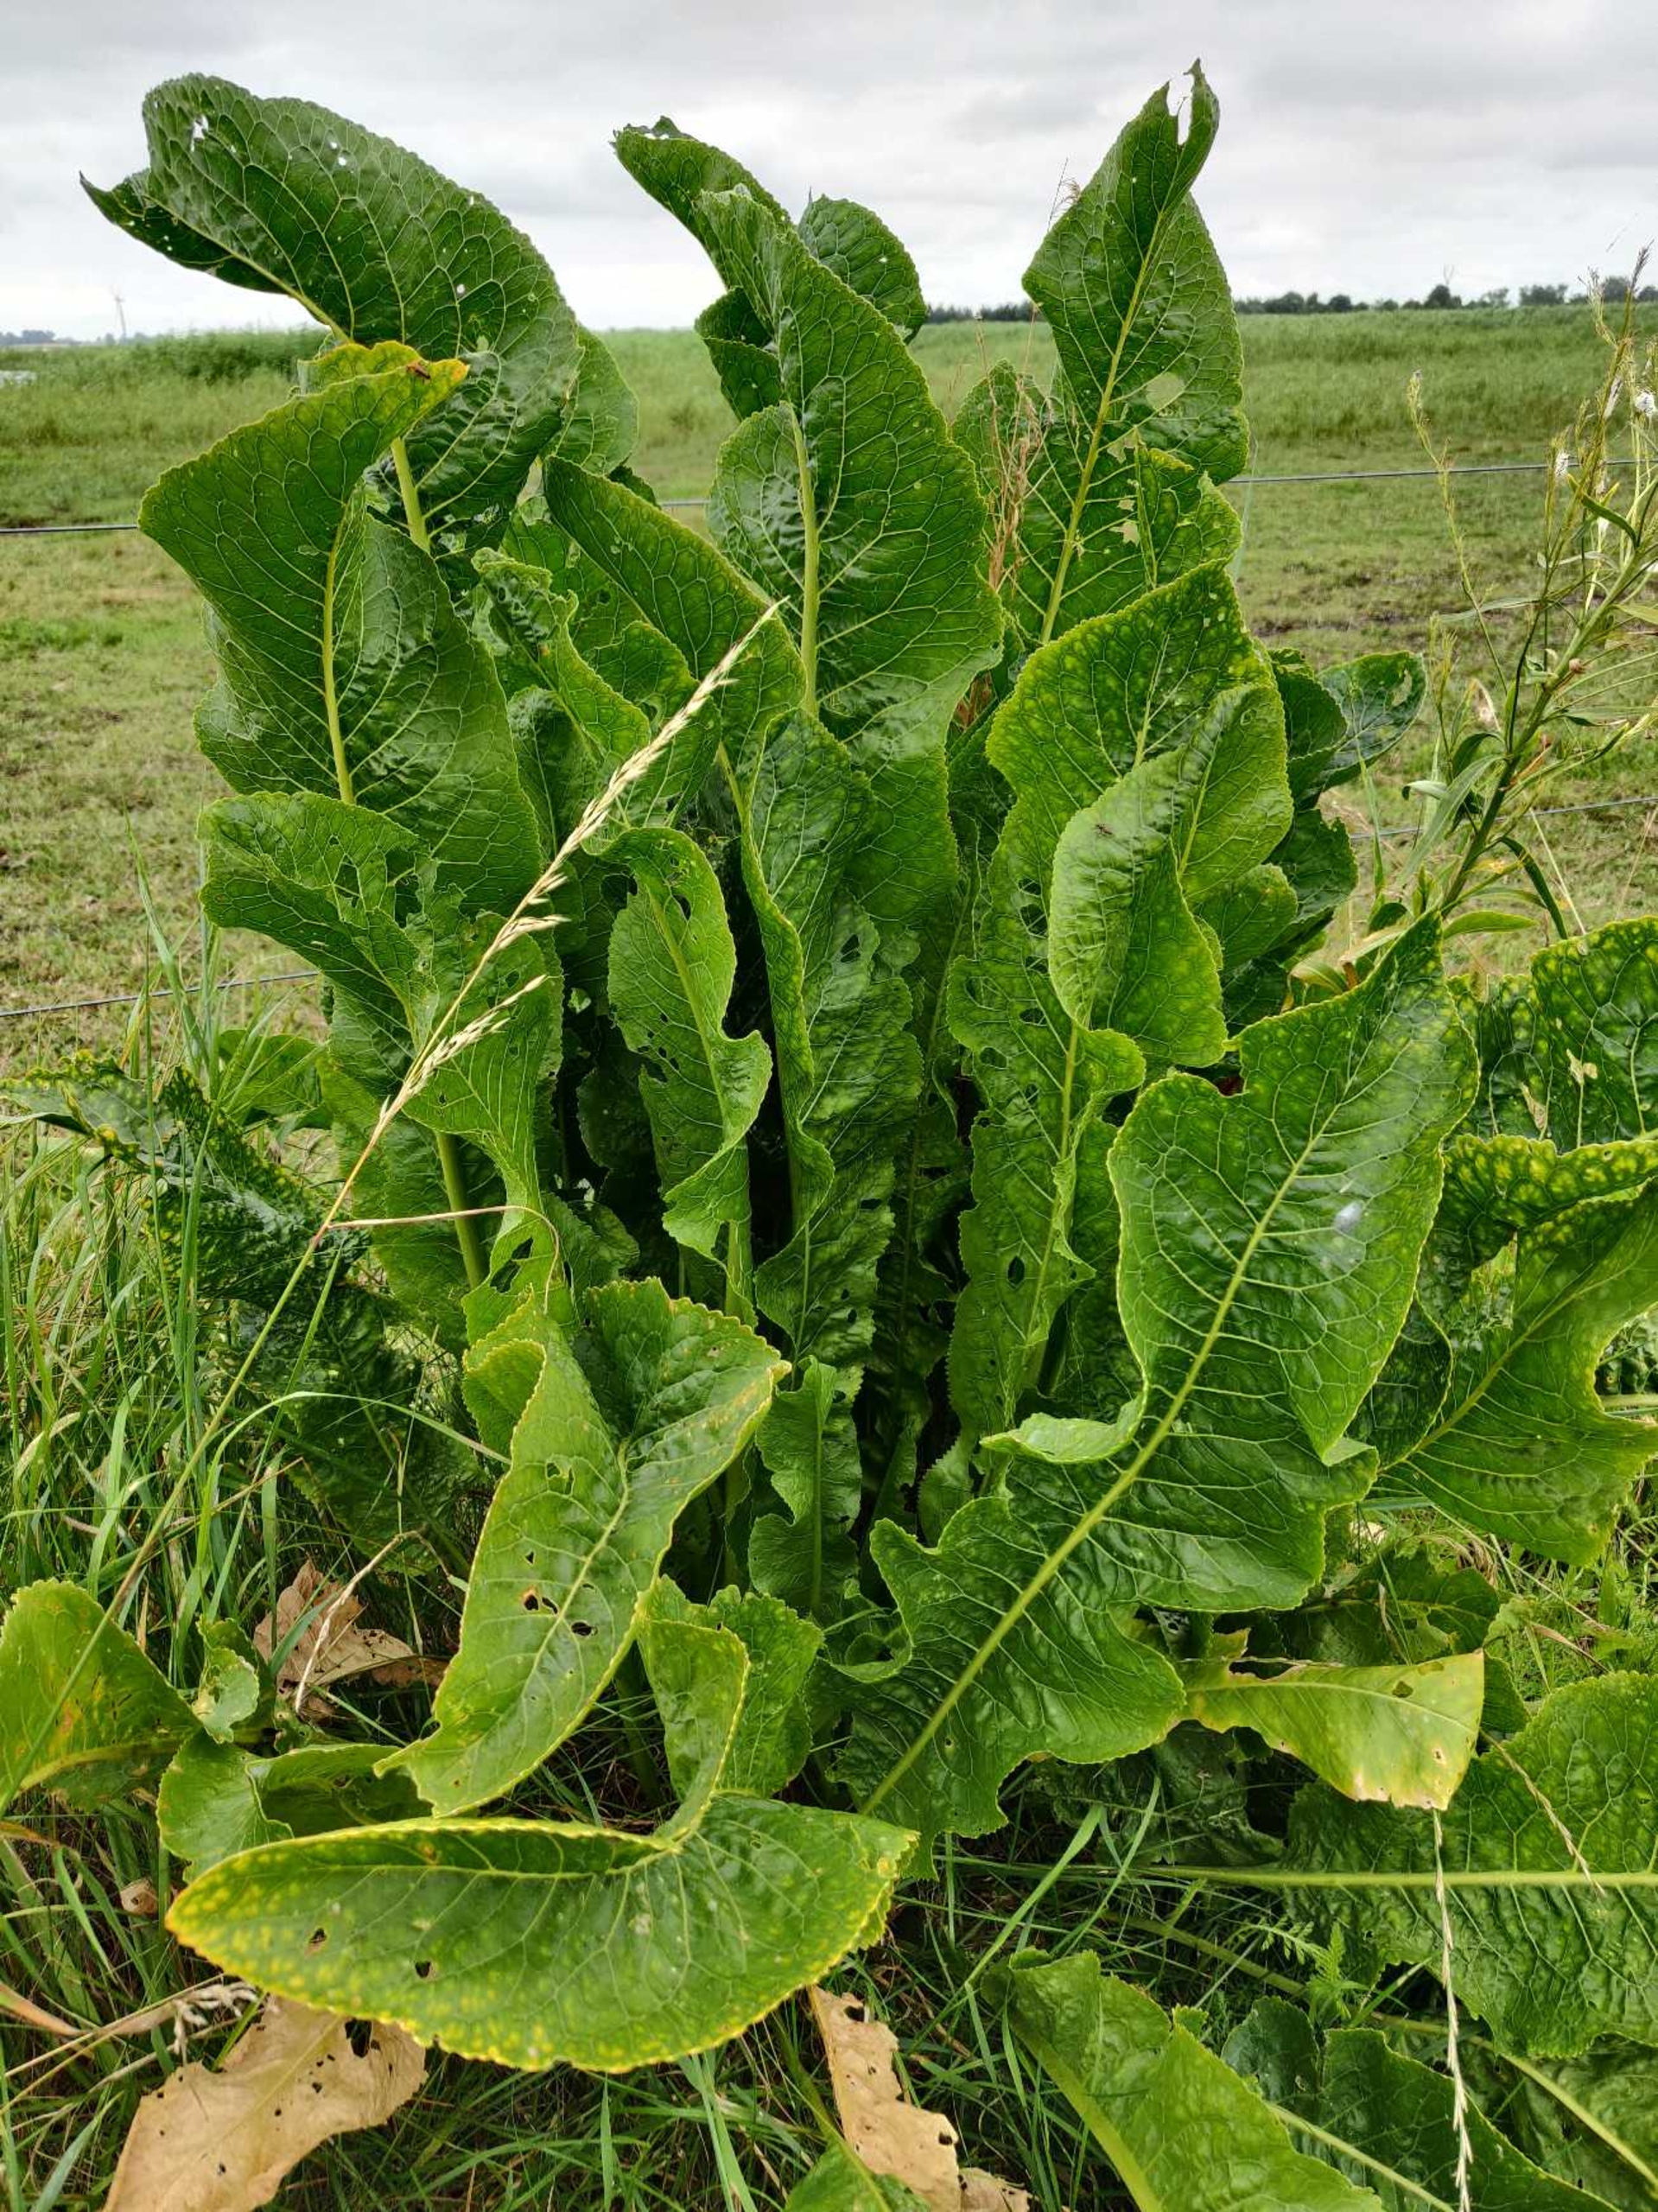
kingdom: Plantae
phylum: Tracheophyta
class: Magnoliopsida
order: Brassicales
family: Brassicaceae
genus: Armoracia
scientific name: Armoracia rusticana
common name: Peberrod
